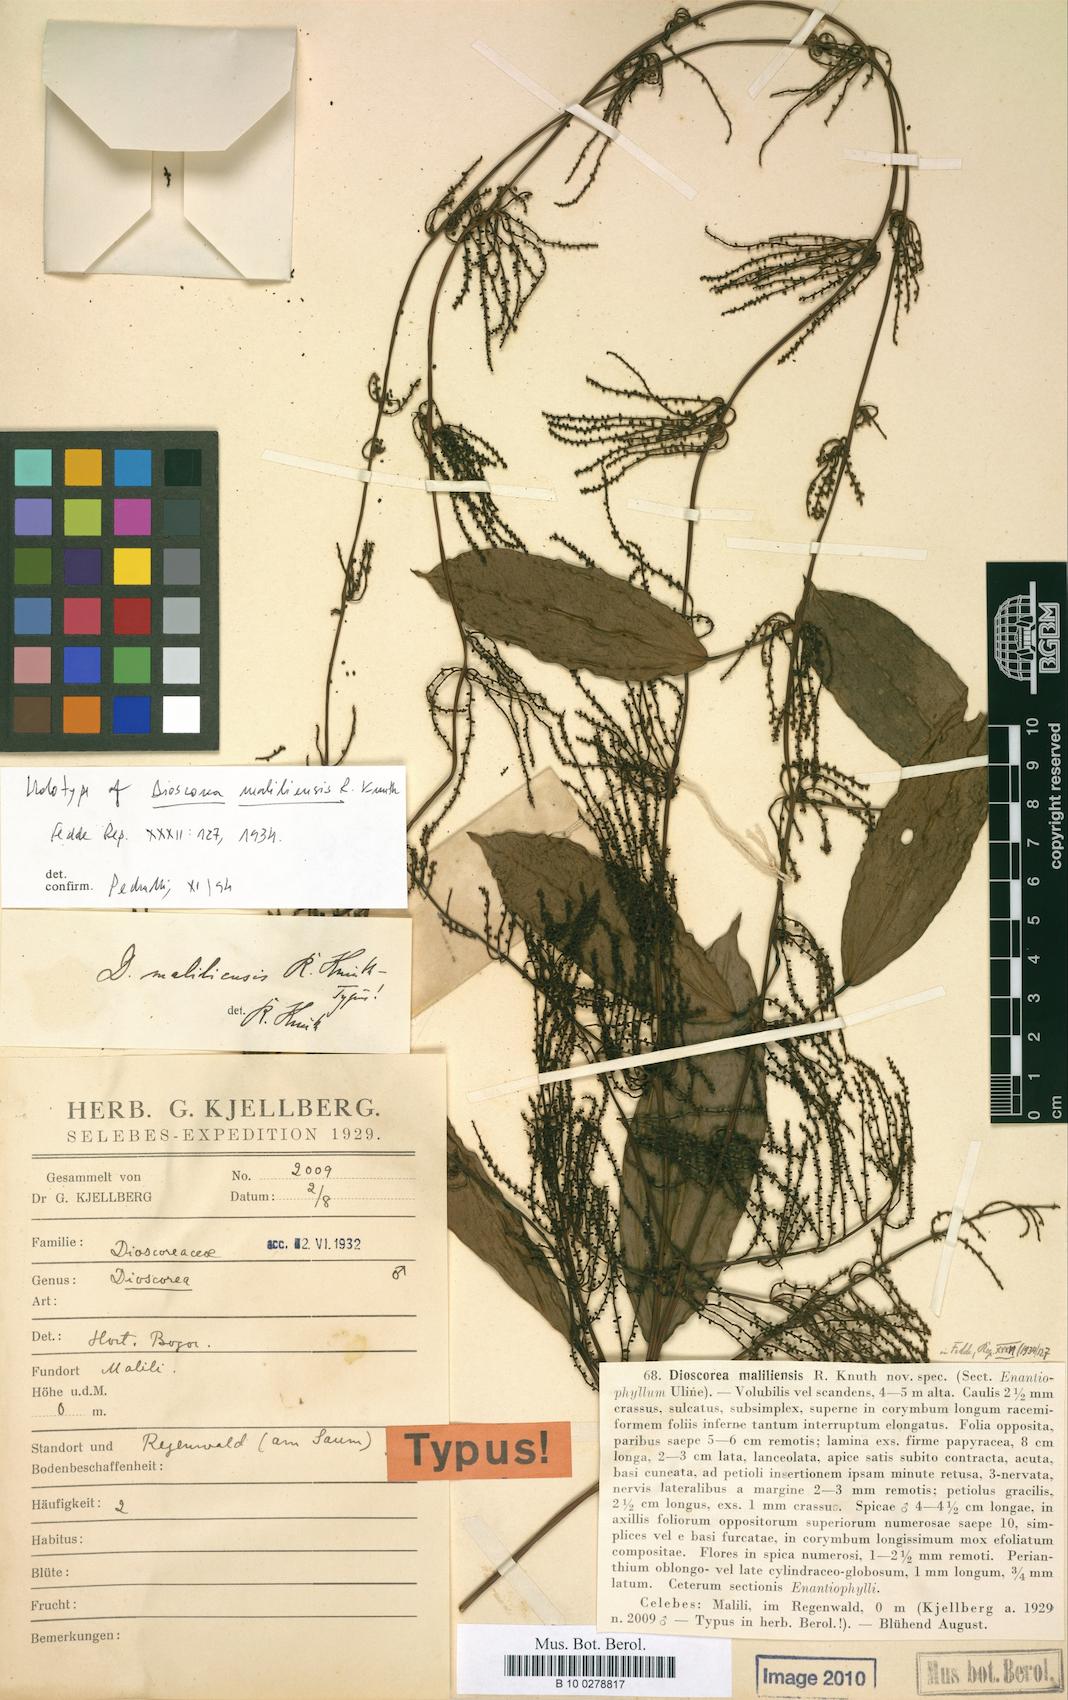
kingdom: Plantae
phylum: Tracheophyta
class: Liliopsida
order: Dioscoreales
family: Dioscoreaceae
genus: Dioscorea
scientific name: Dioscorea prainiana
